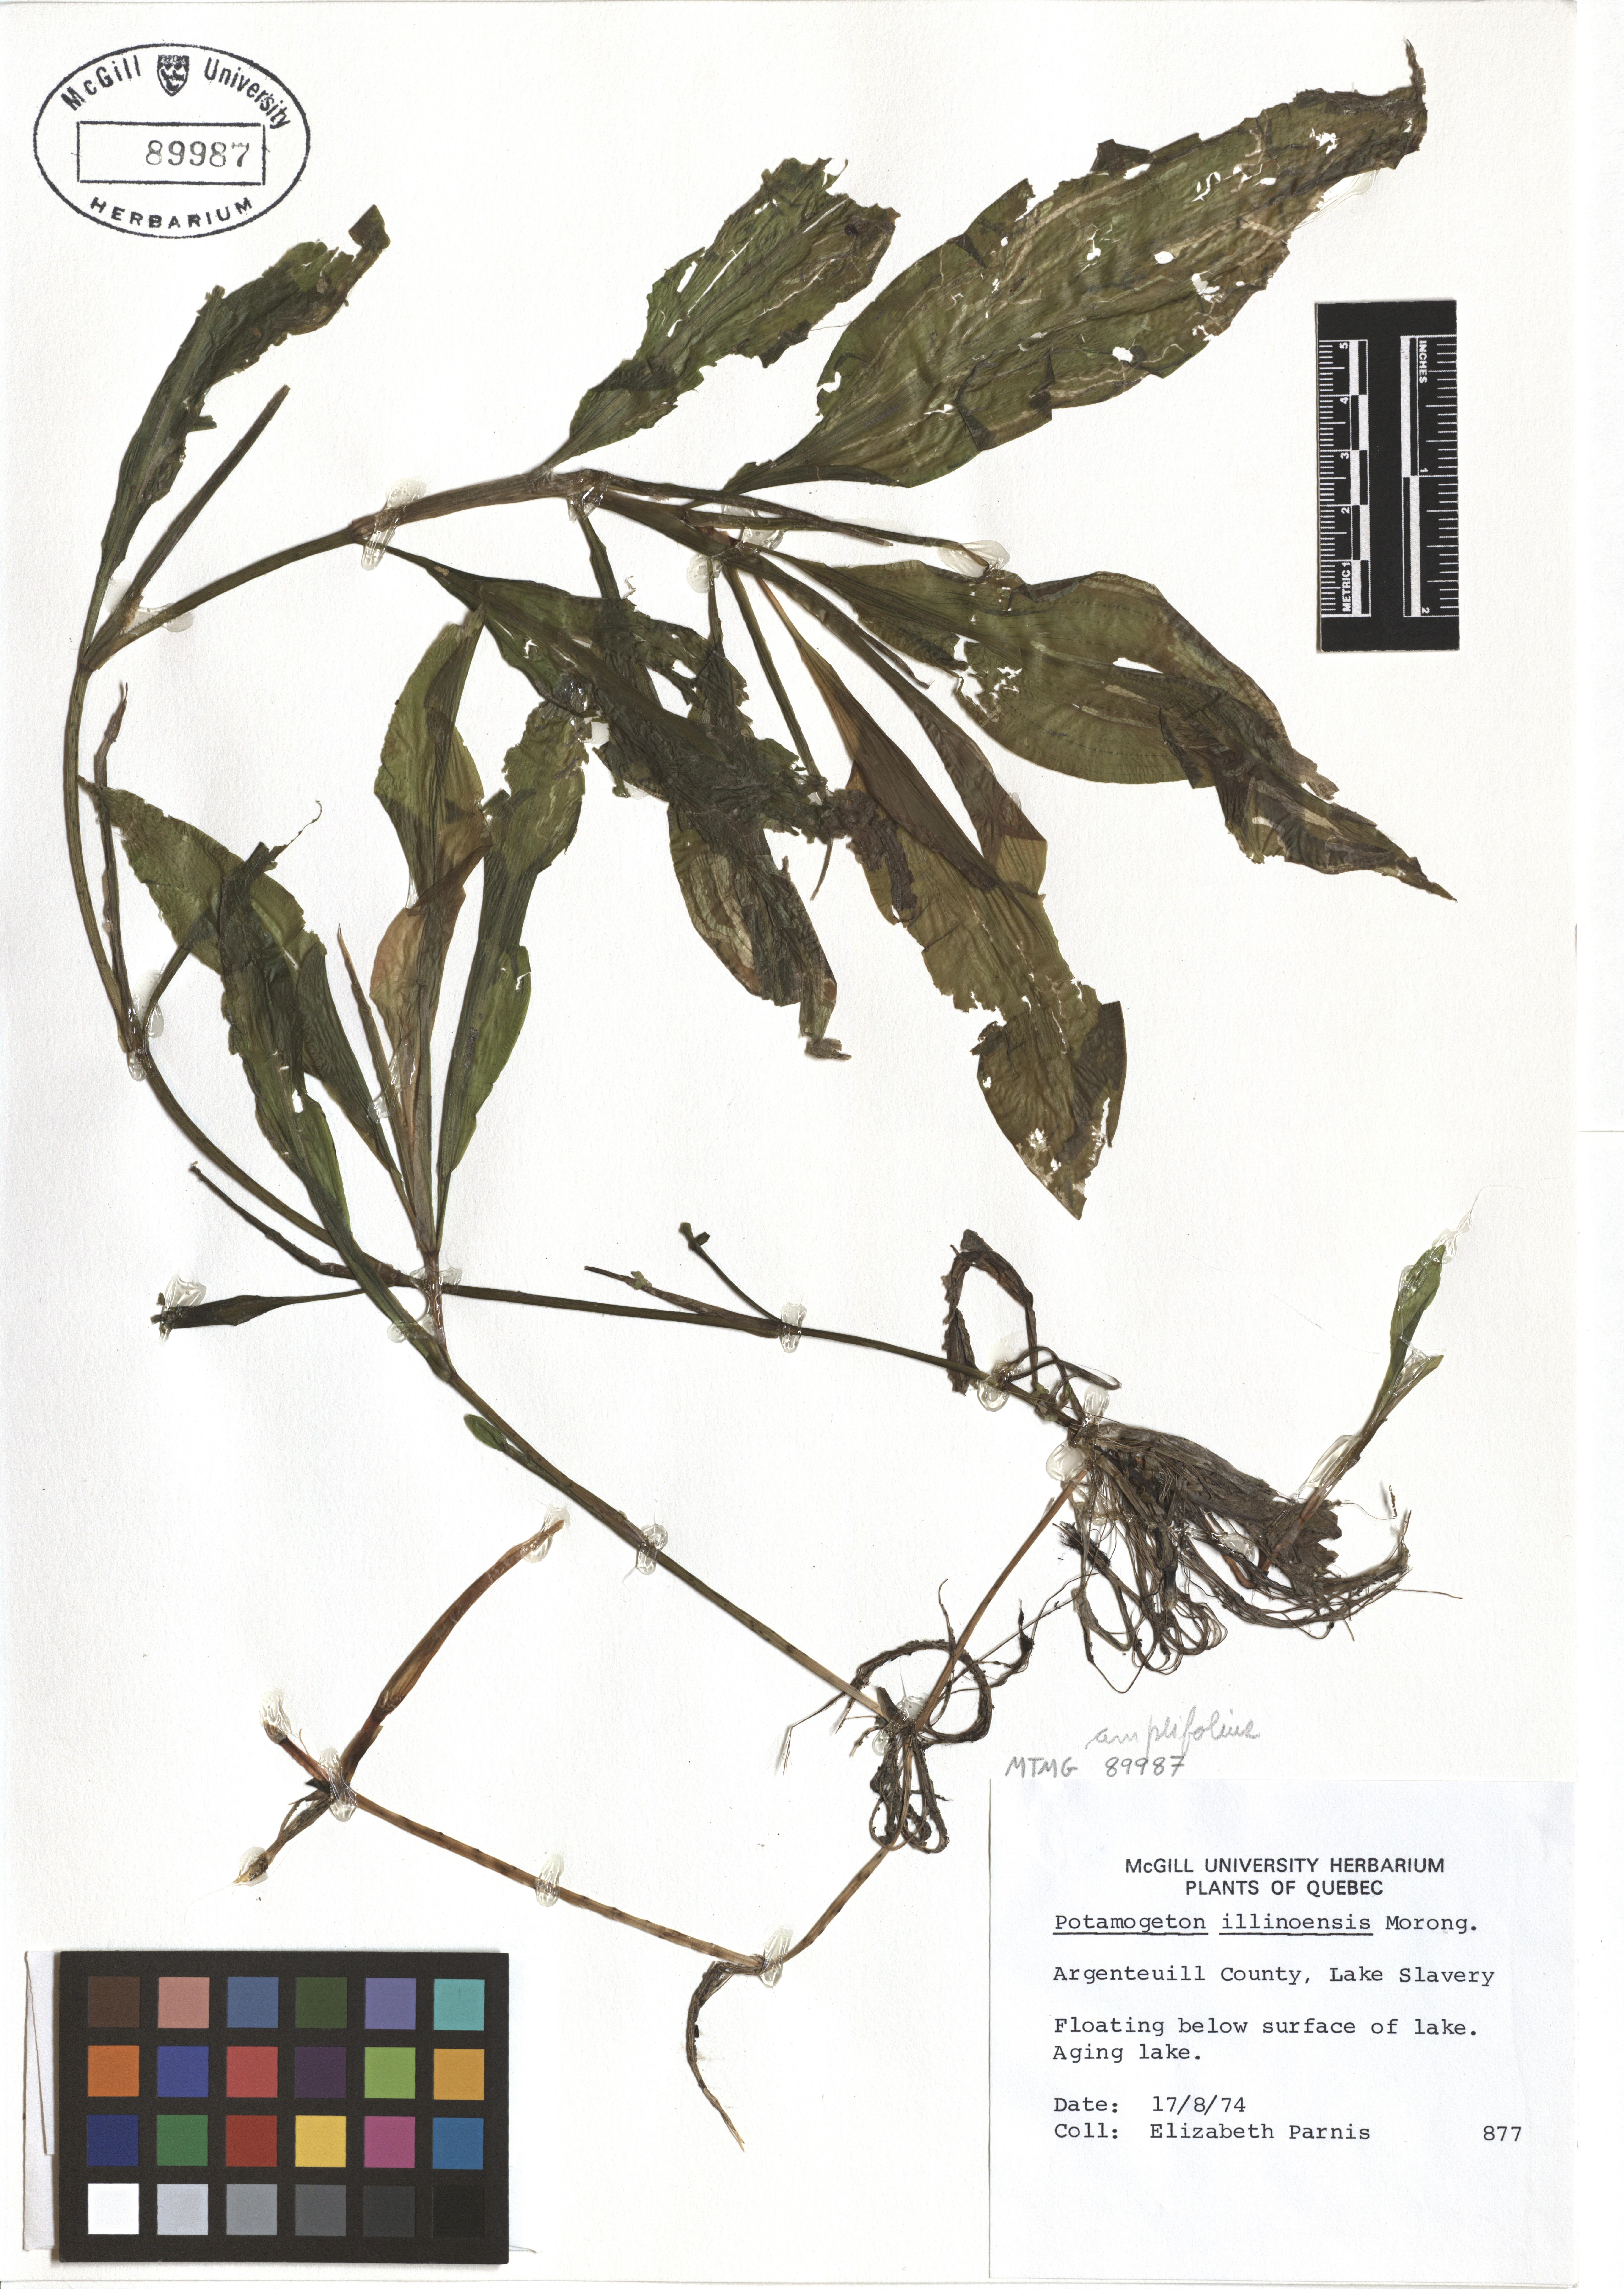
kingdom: Plantae
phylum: Tracheophyta
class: Liliopsida
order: Alismatales
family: Potamogetonaceae
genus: Potamogeton
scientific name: Potamogeton illinoensis
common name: Illinois pondweed
